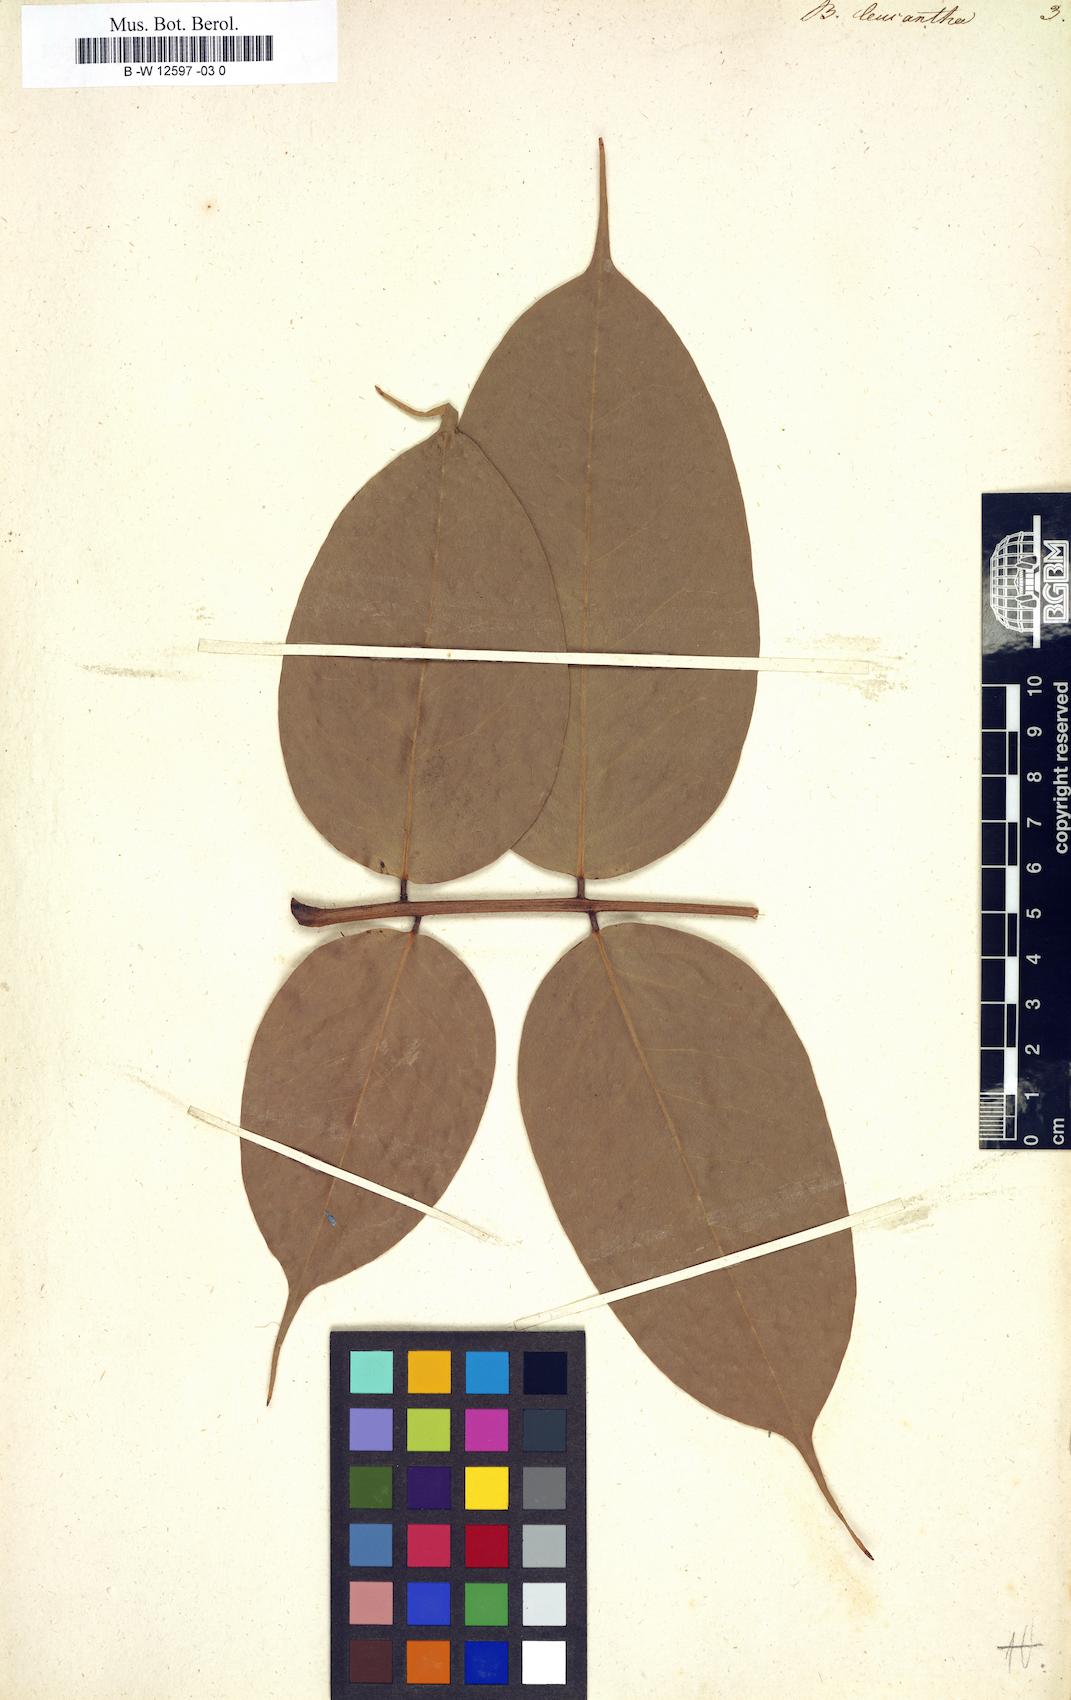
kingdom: Plantae
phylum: Tracheophyta
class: Magnoliopsida
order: Fabales
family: Fabaceae
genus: Brownea
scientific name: Brownea leucantha
